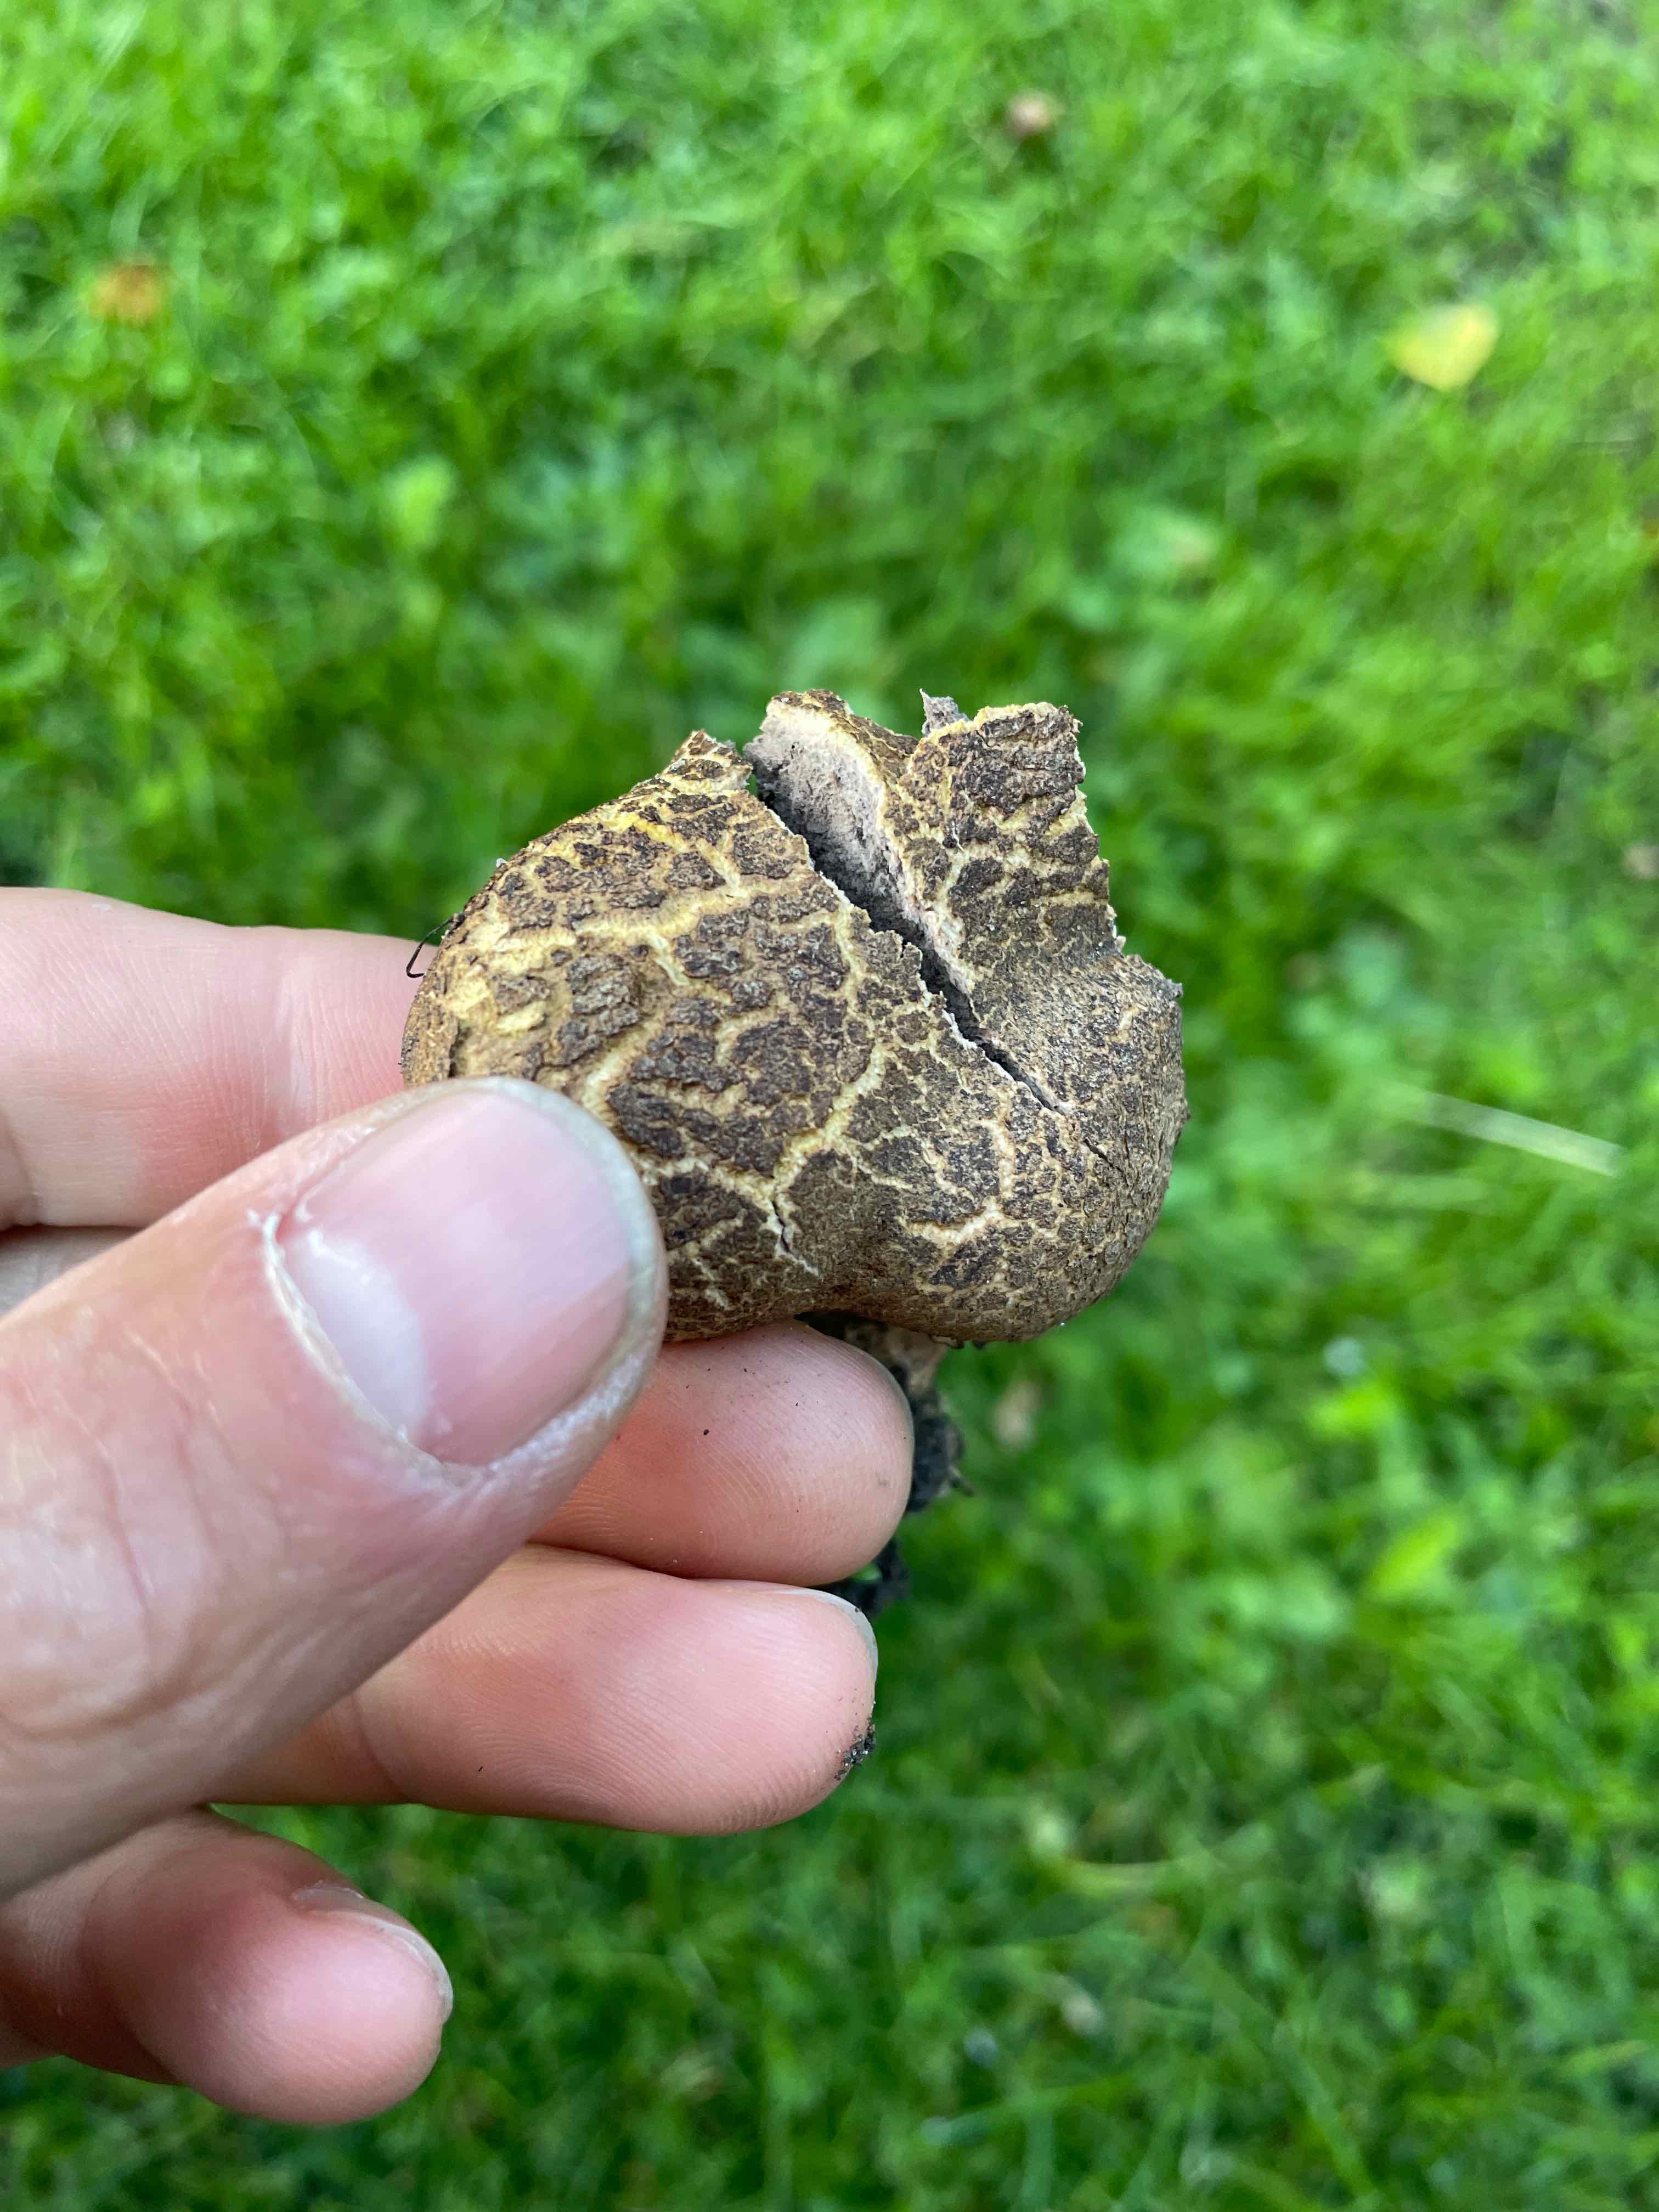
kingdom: Fungi
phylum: Basidiomycota
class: Agaricomycetes
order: Boletales
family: Sclerodermataceae
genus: Scleroderma
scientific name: Scleroderma
